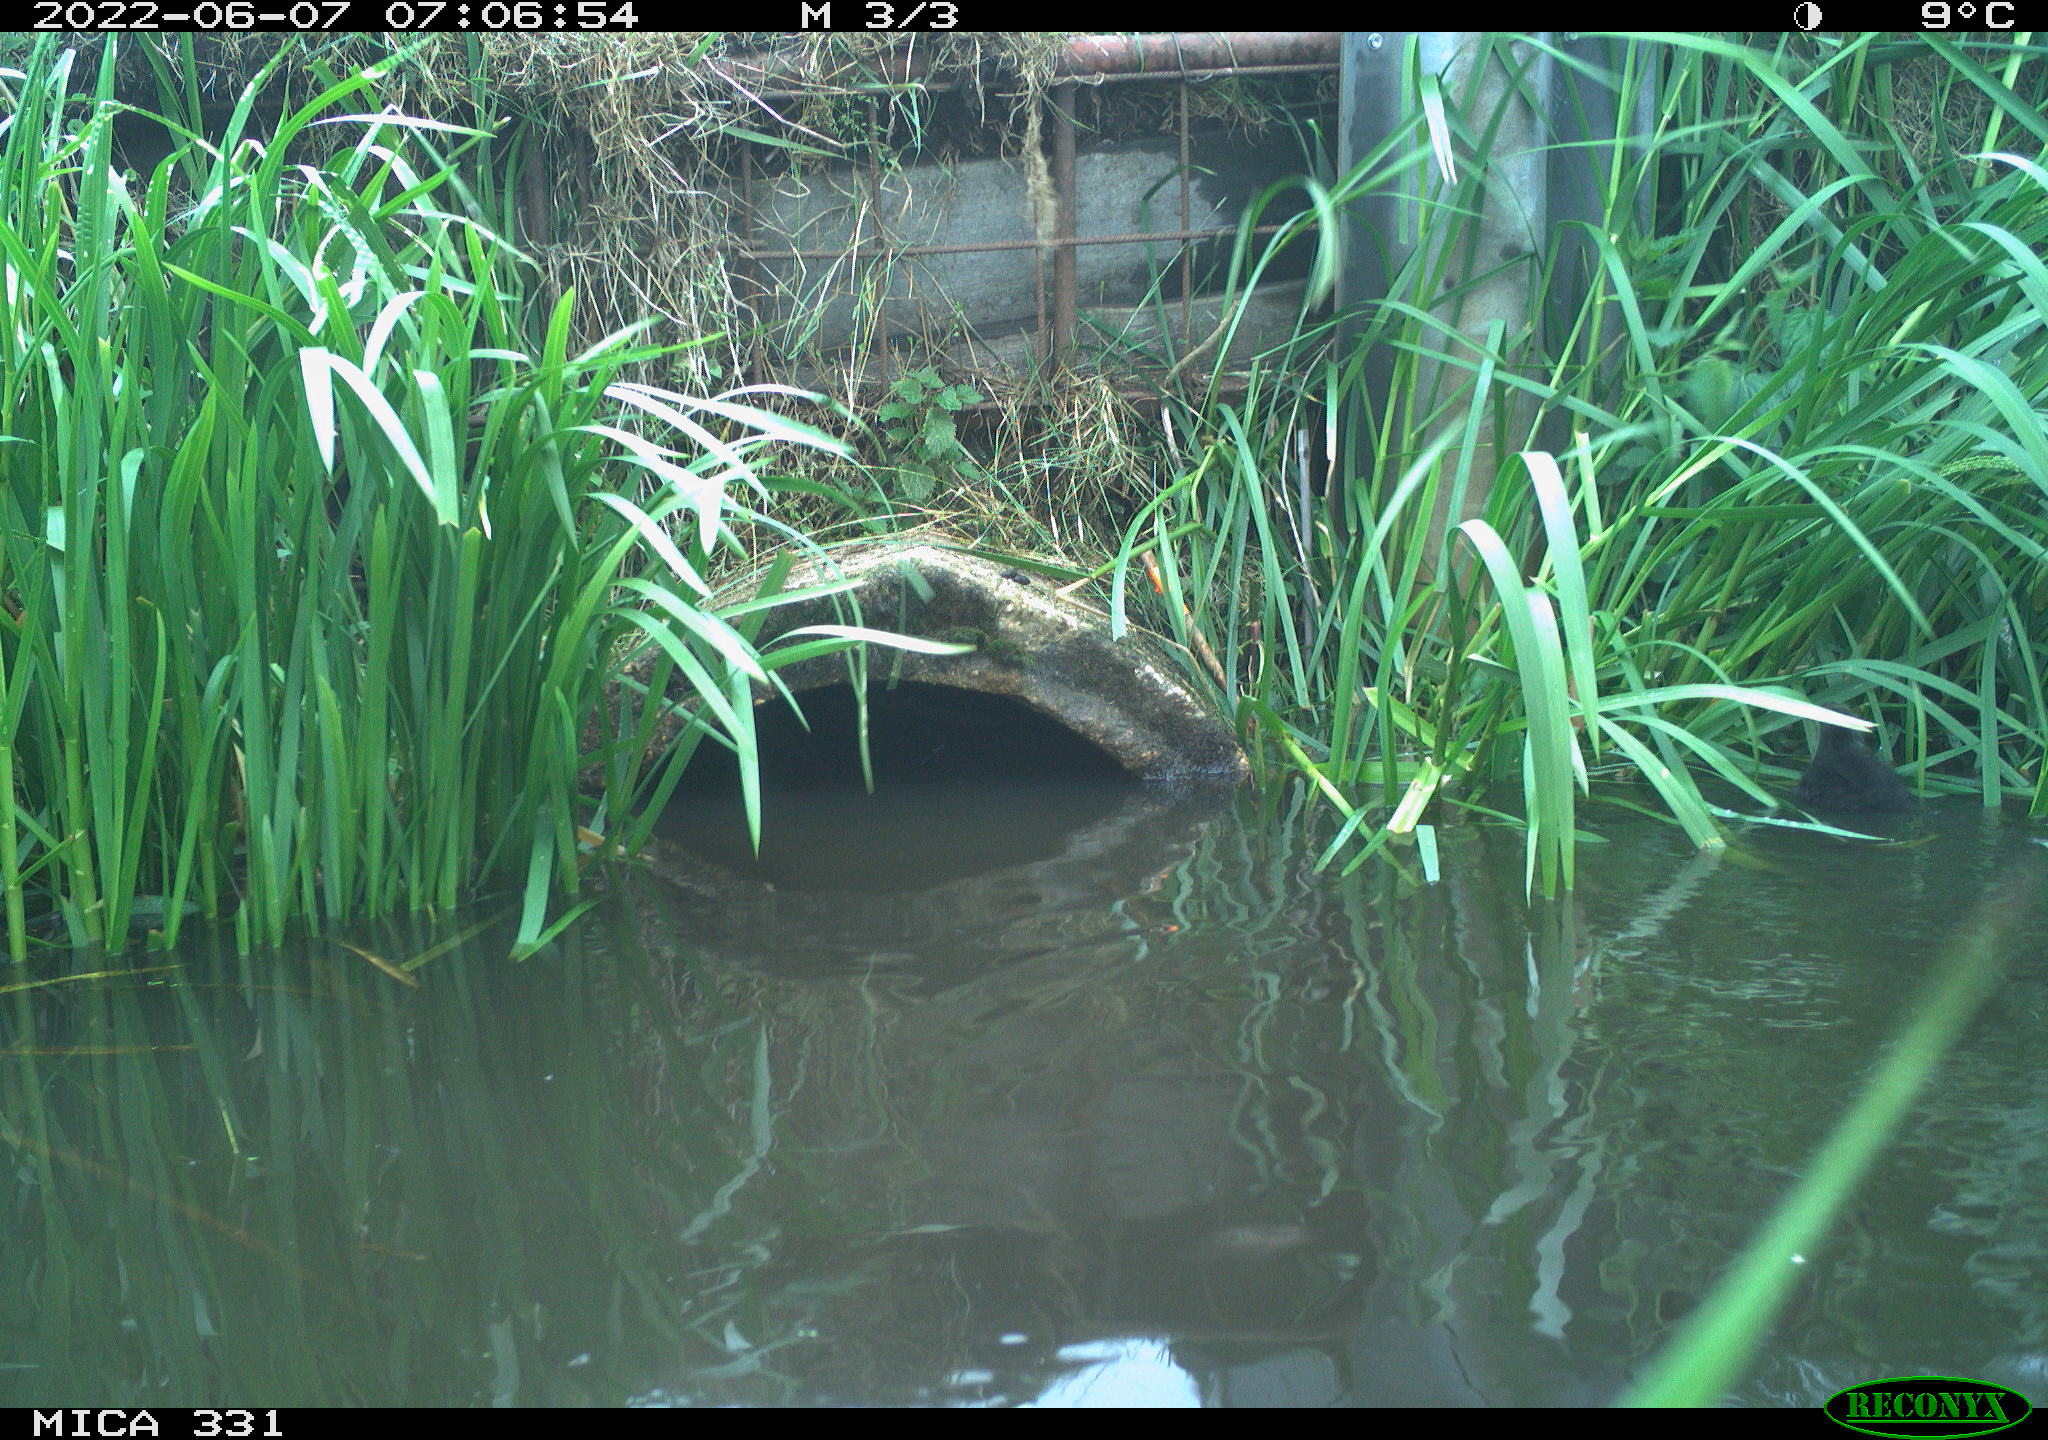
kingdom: Animalia
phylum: Chordata
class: Aves
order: Gruiformes
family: Rallidae
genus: Fulica
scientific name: Fulica atra
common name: Eurasian coot
